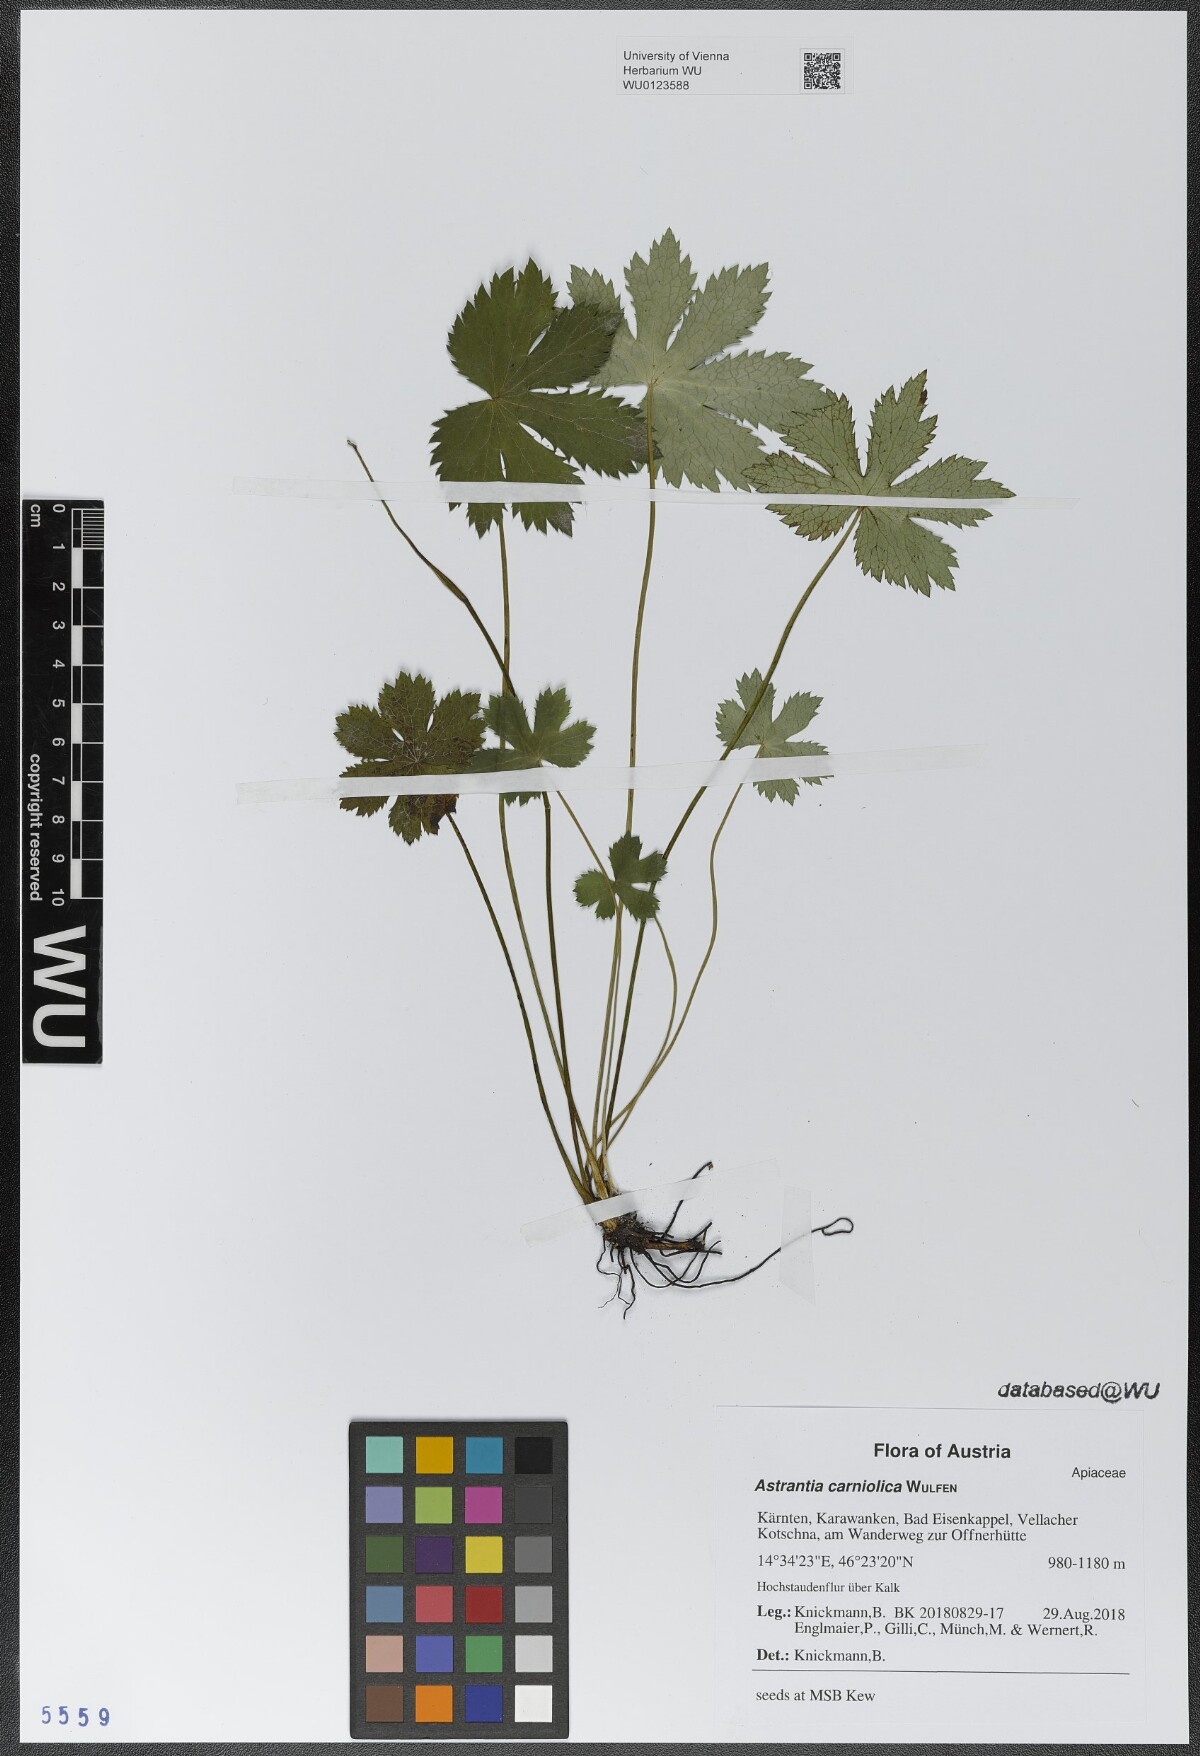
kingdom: Plantae
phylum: Tracheophyta
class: Magnoliopsida
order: Apiales
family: Apiaceae
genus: Astrantia
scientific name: Astrantia carniolica
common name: Carnic masterwort
